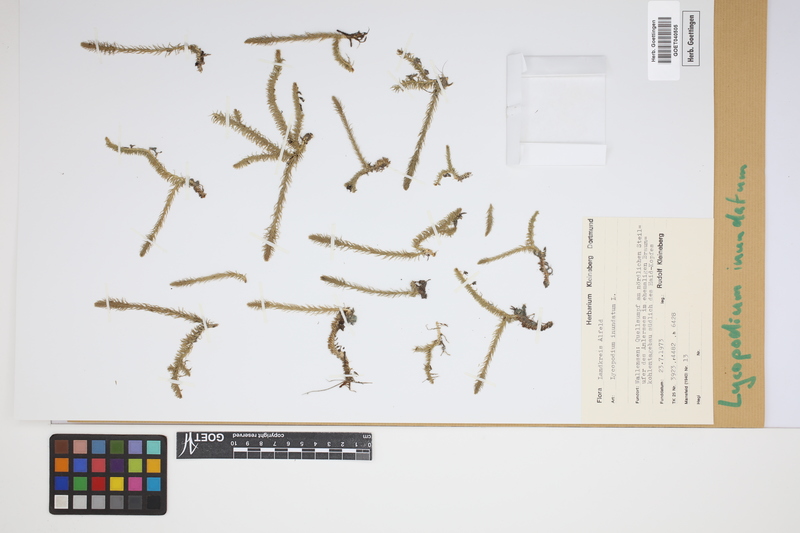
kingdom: Plantae
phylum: Tracheophyta
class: Lycopodiopsida
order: Lycopodiales
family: Lycopodiaceae
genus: Lycopodiella
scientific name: Lycopodiella inundata
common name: Marsh clubmoss
